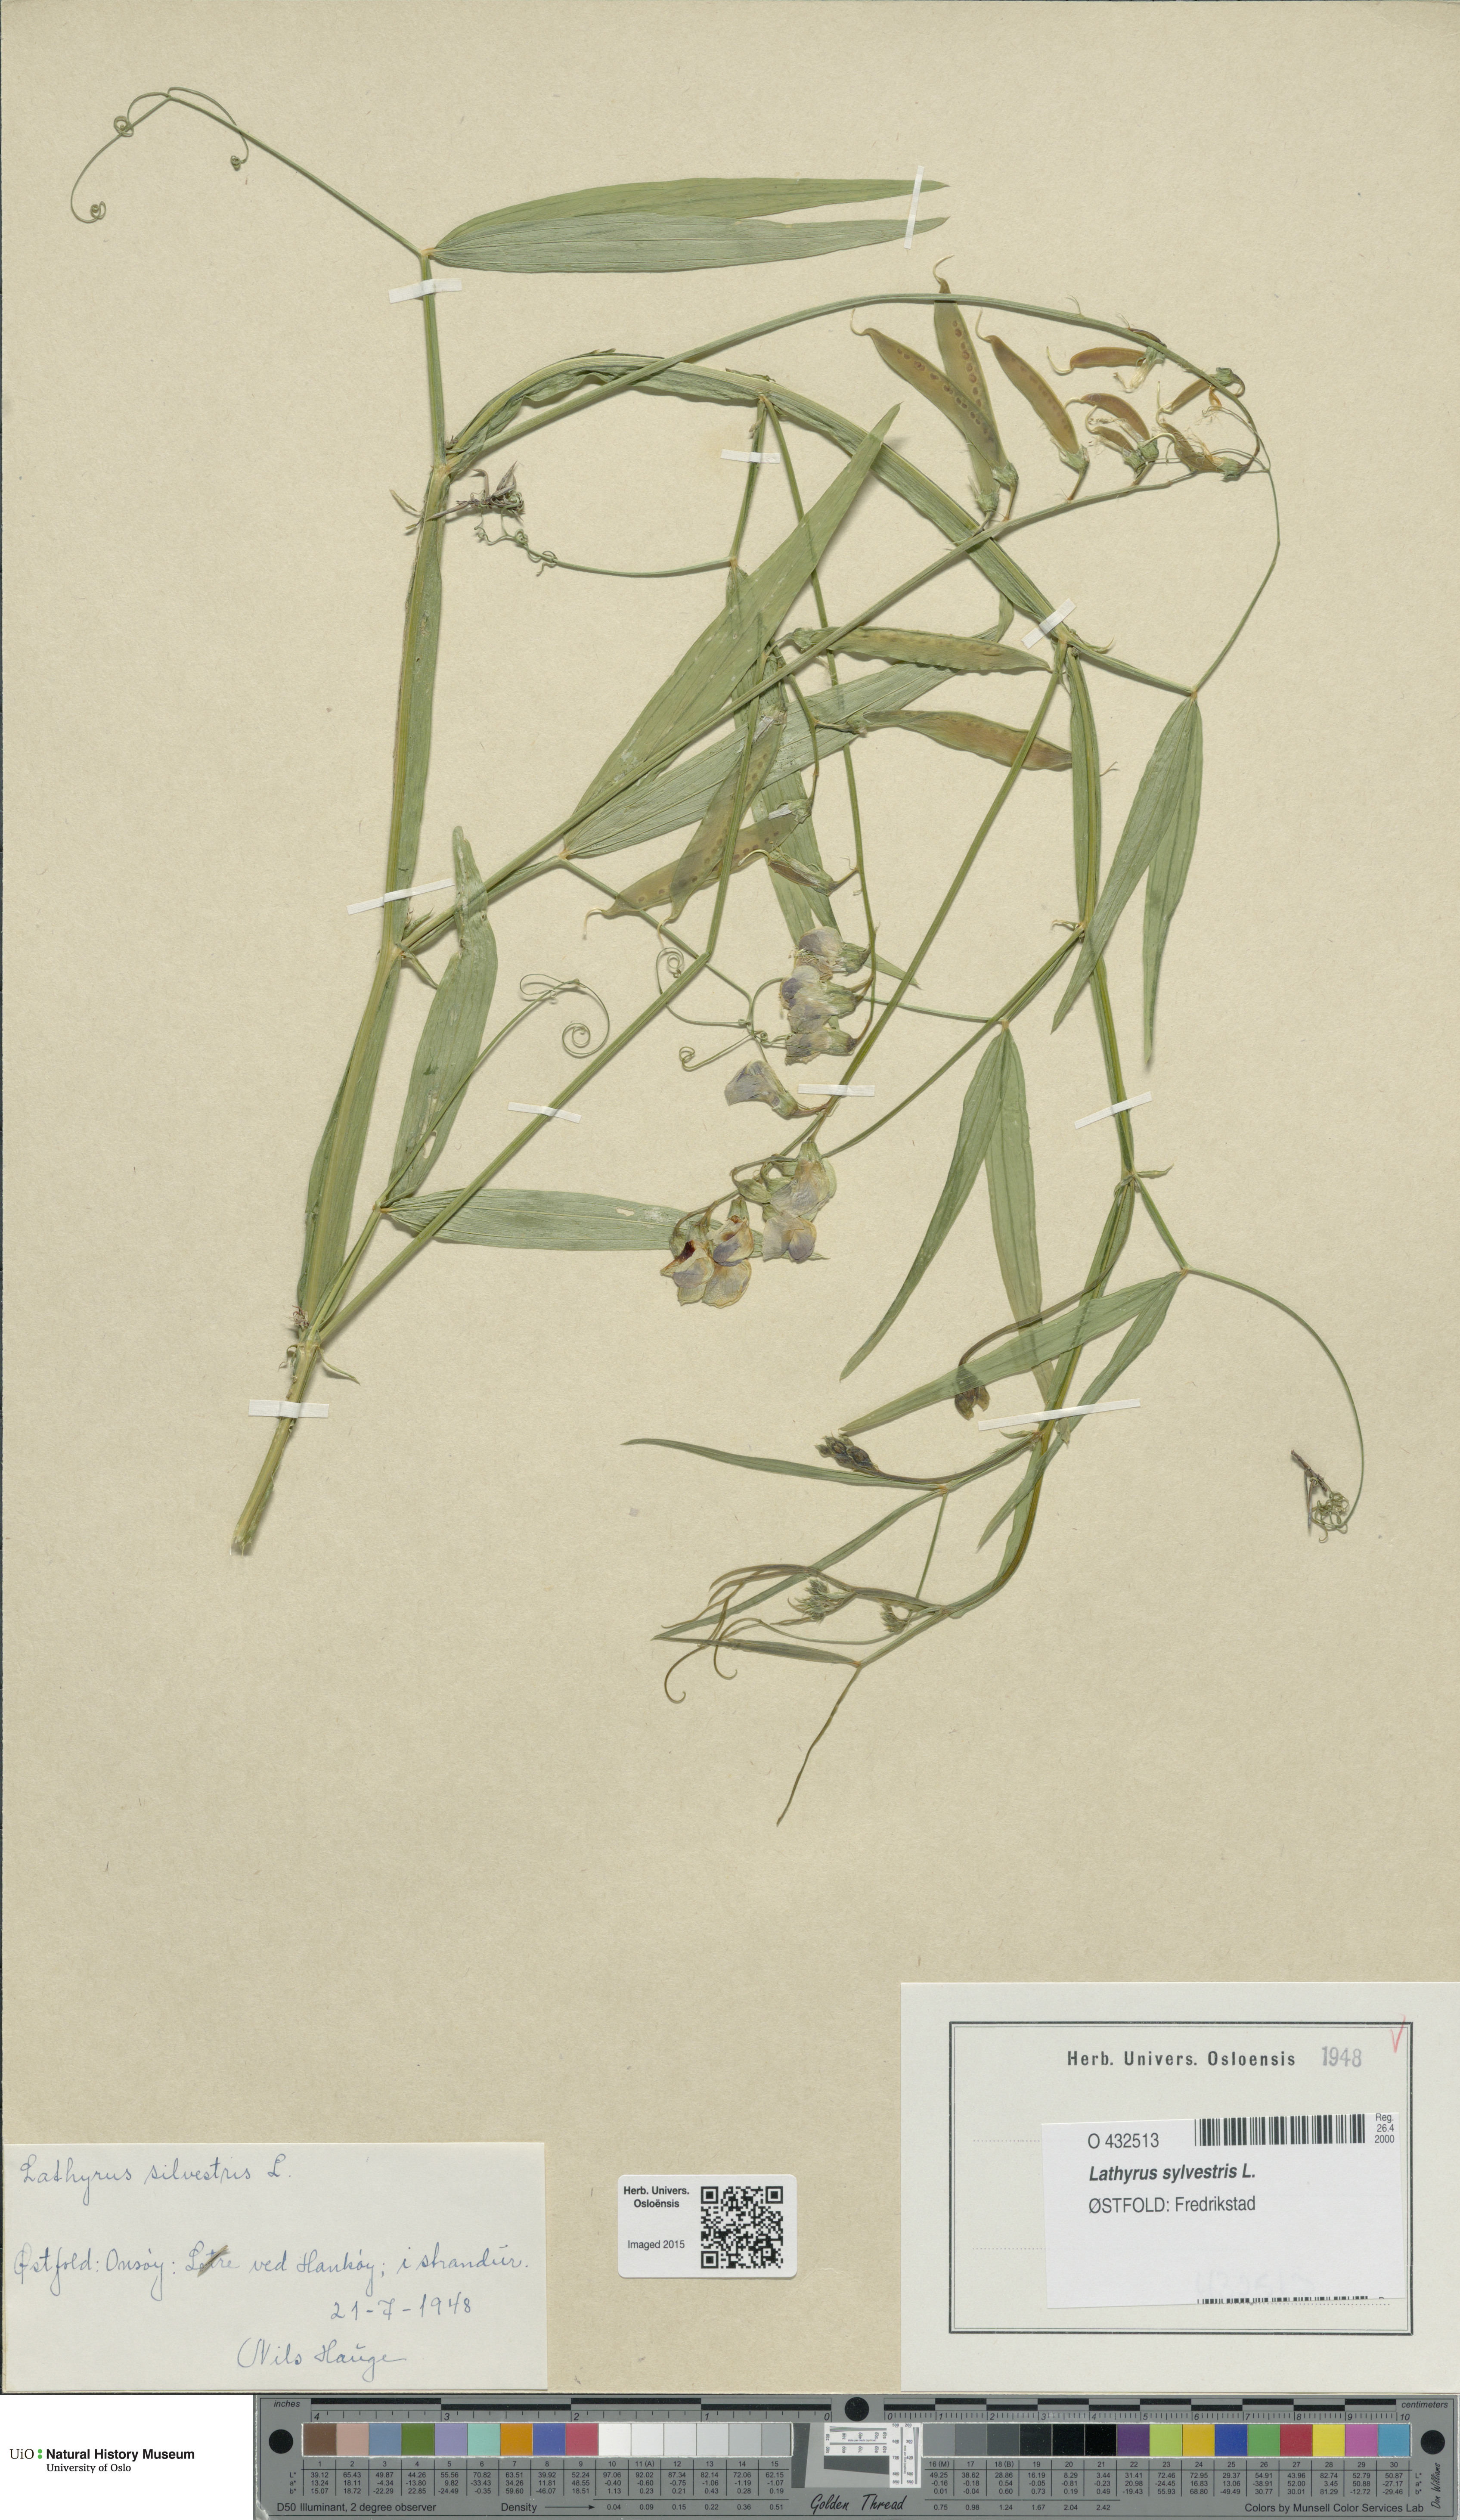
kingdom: Plantae
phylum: Tracheophyta
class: Magnoliopsida
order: Fabales
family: Fabaceae
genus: Lathyrus
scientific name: Lathyrus sylvestris
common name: Flat pea
